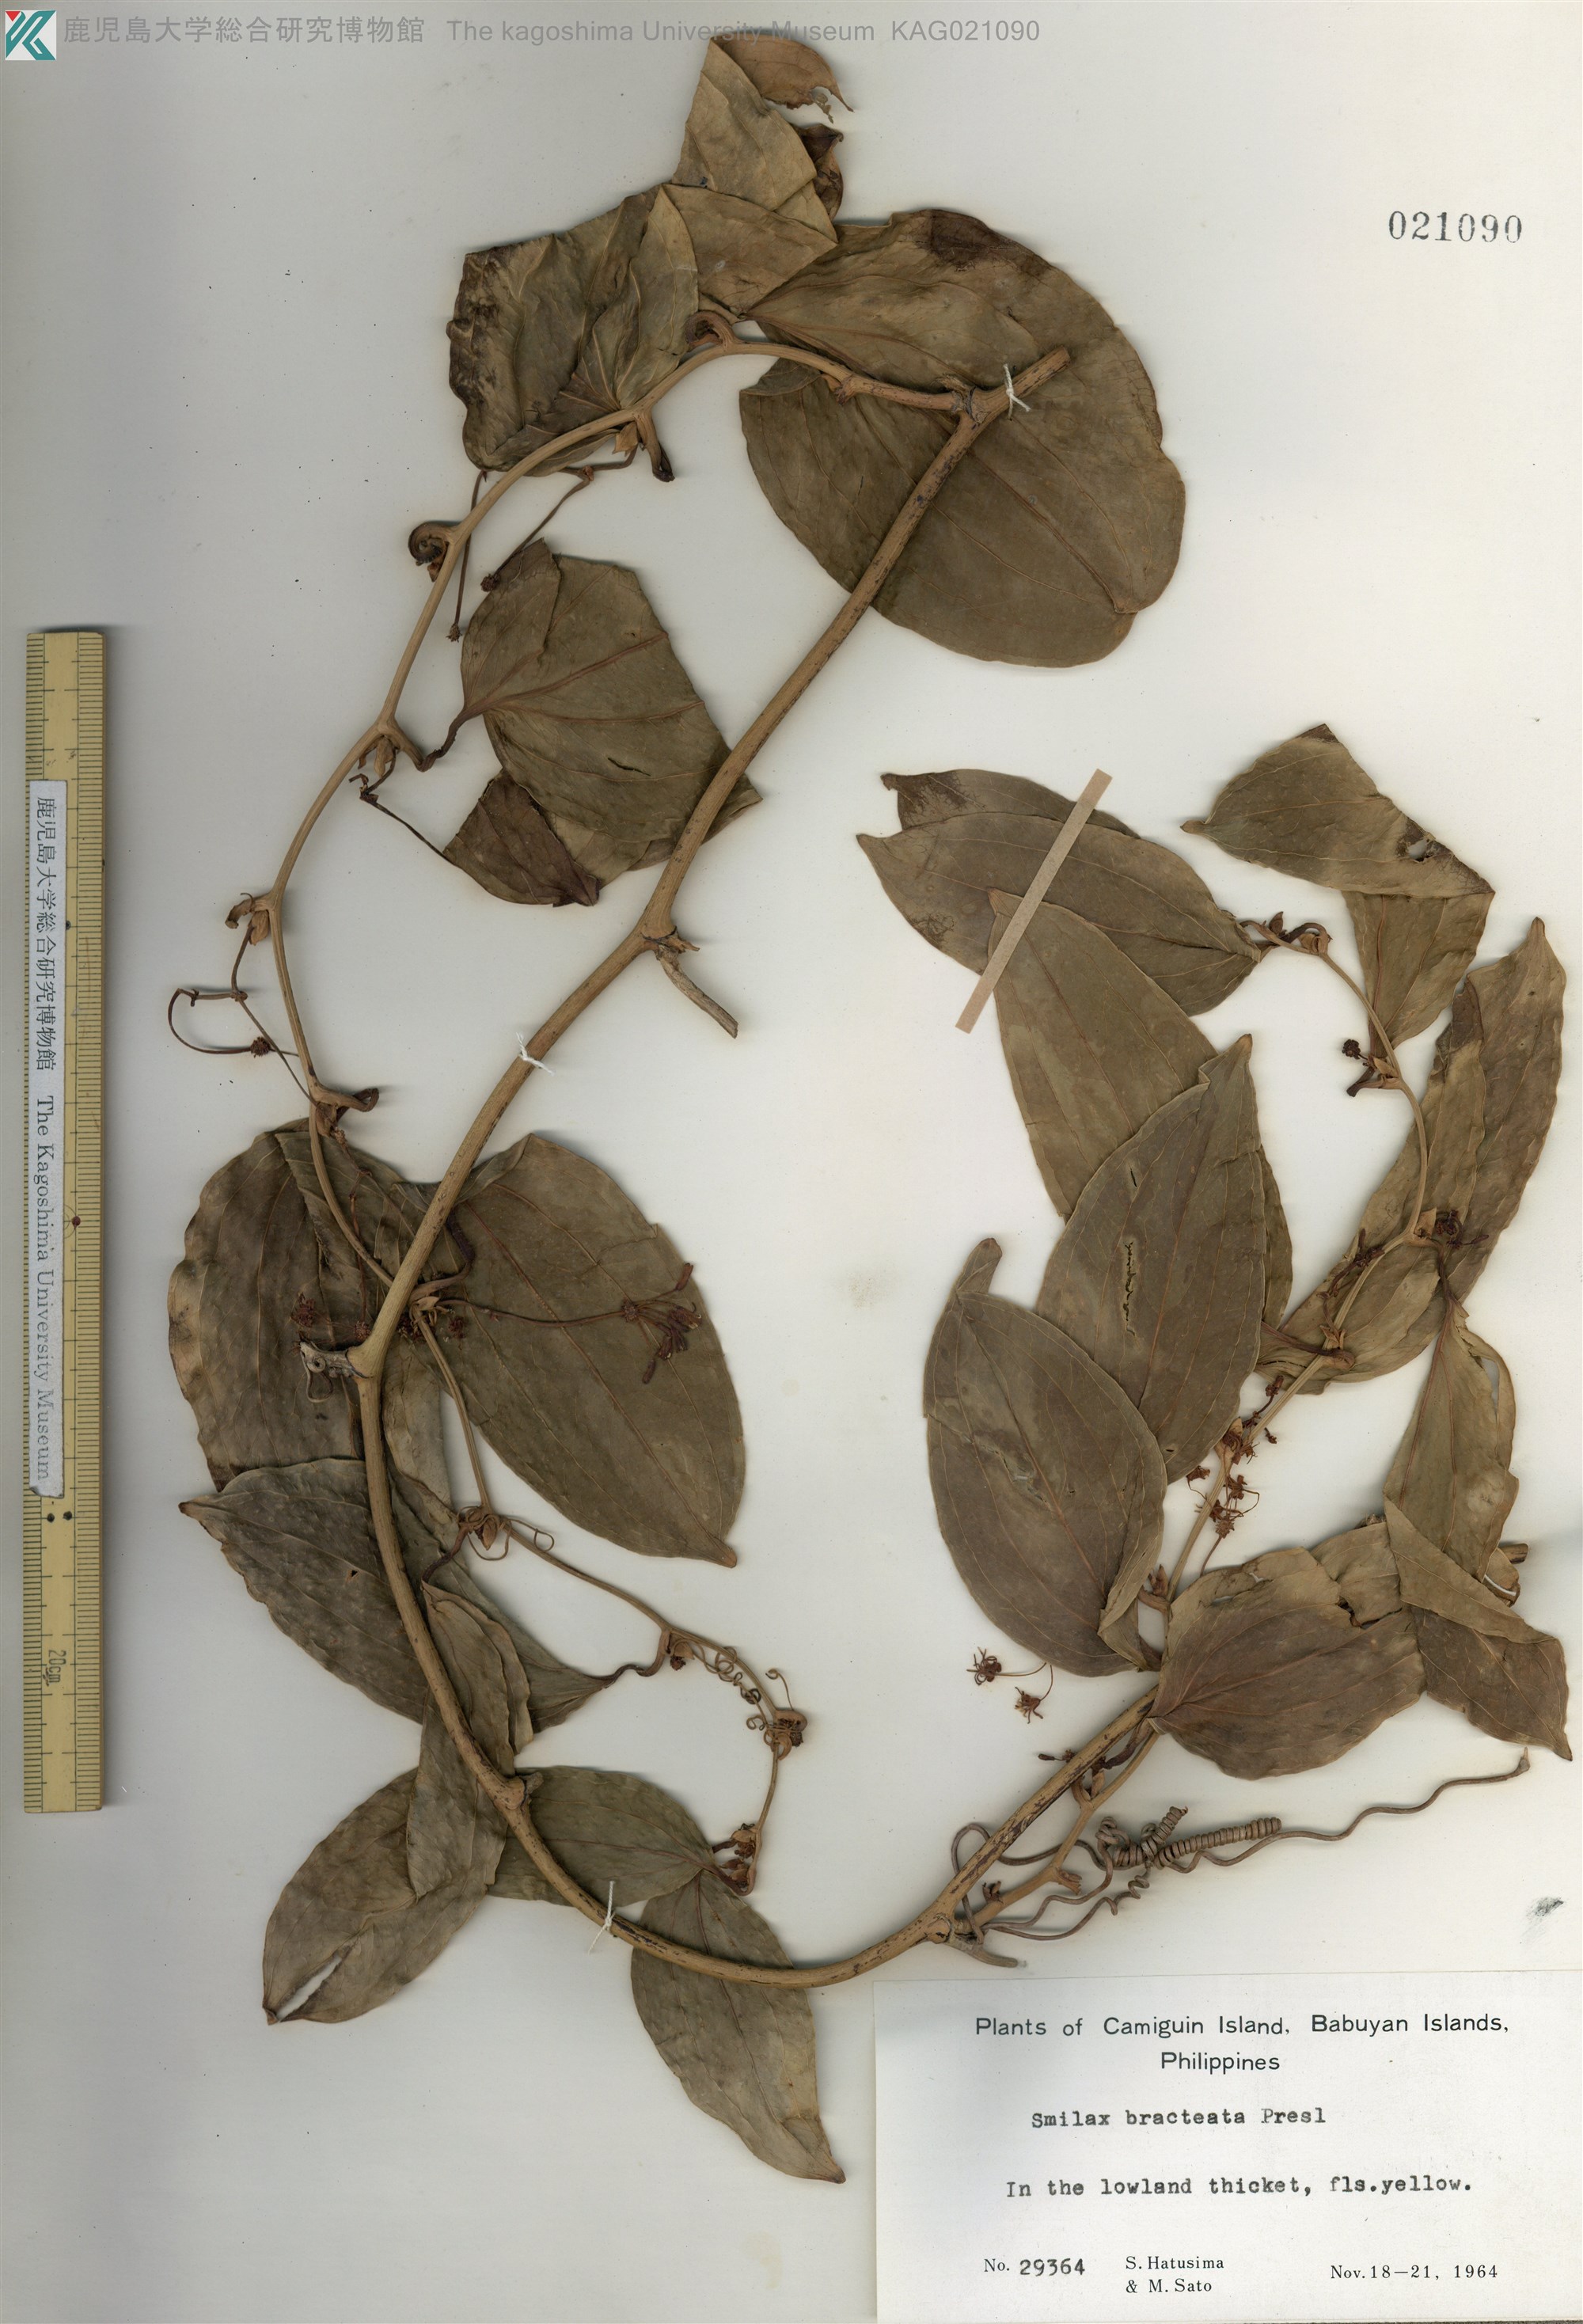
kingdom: Plantae
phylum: Tracheophyta
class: Liliopsida
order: Liliales
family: Smilacaceae
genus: Smilax
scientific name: Smilax bracteata
